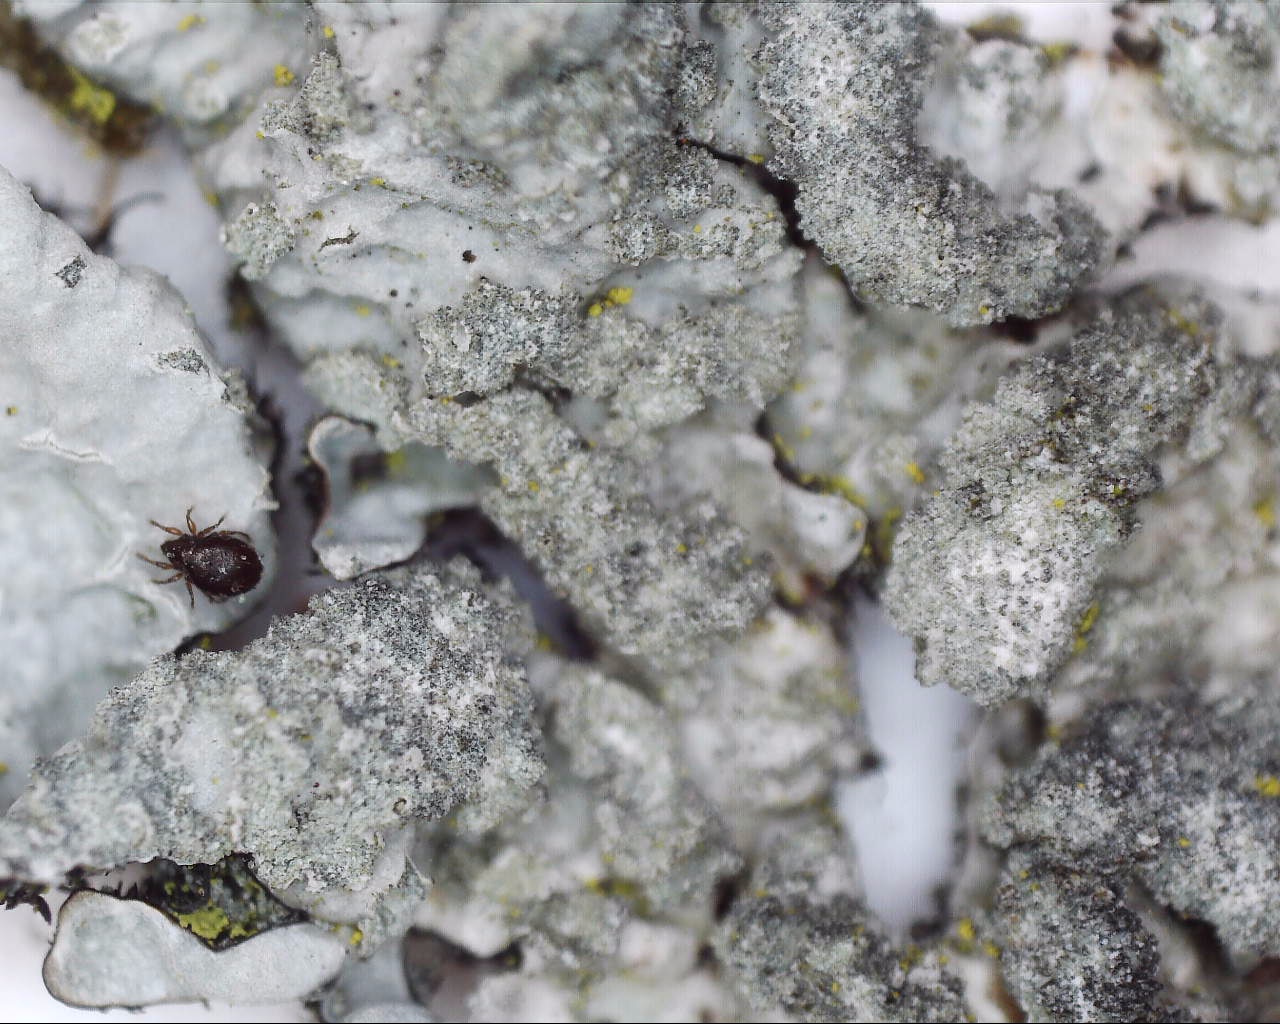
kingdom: Fungi
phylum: Ascomycota
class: Lecanoromycetes
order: Lecanorales
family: Parmeliaceae
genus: Parmelia
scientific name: Parmelia sulcata
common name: rynket skållav
